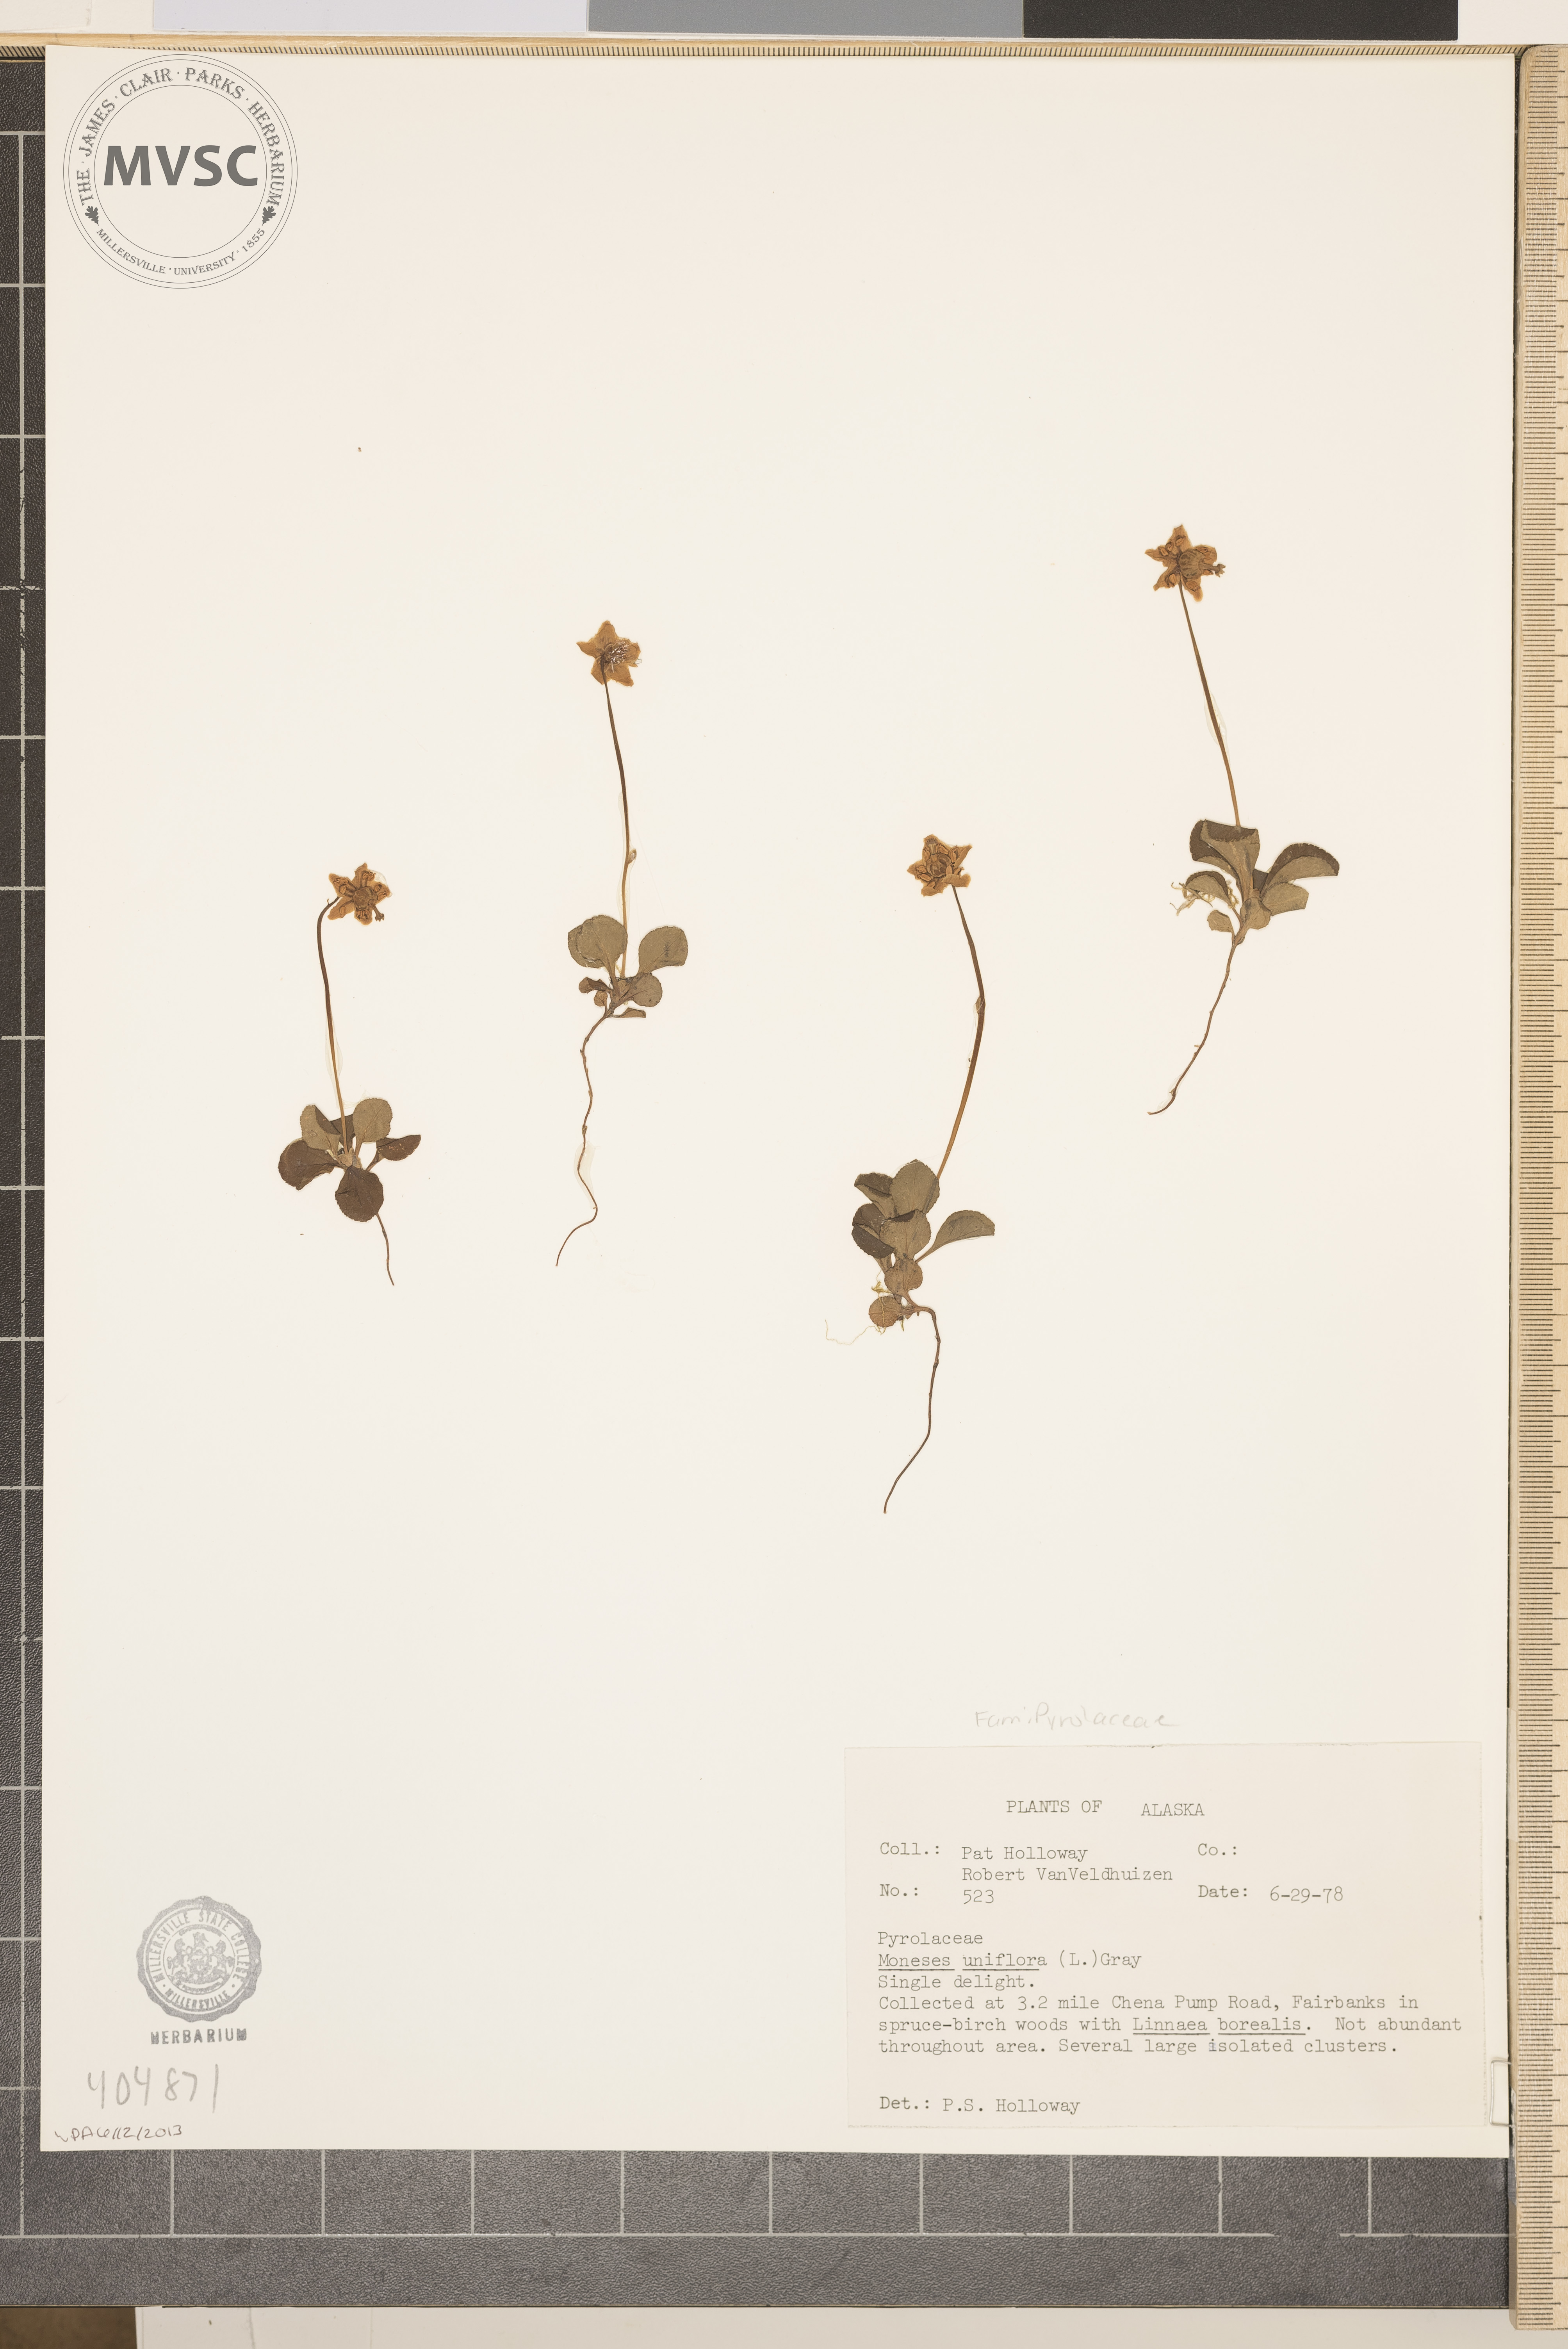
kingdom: Plantae
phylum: Tracheophyta
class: Magnoliopsida
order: Ericales
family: Ericaceae
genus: Moneses
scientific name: Moneses uniflora
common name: Single Delight
